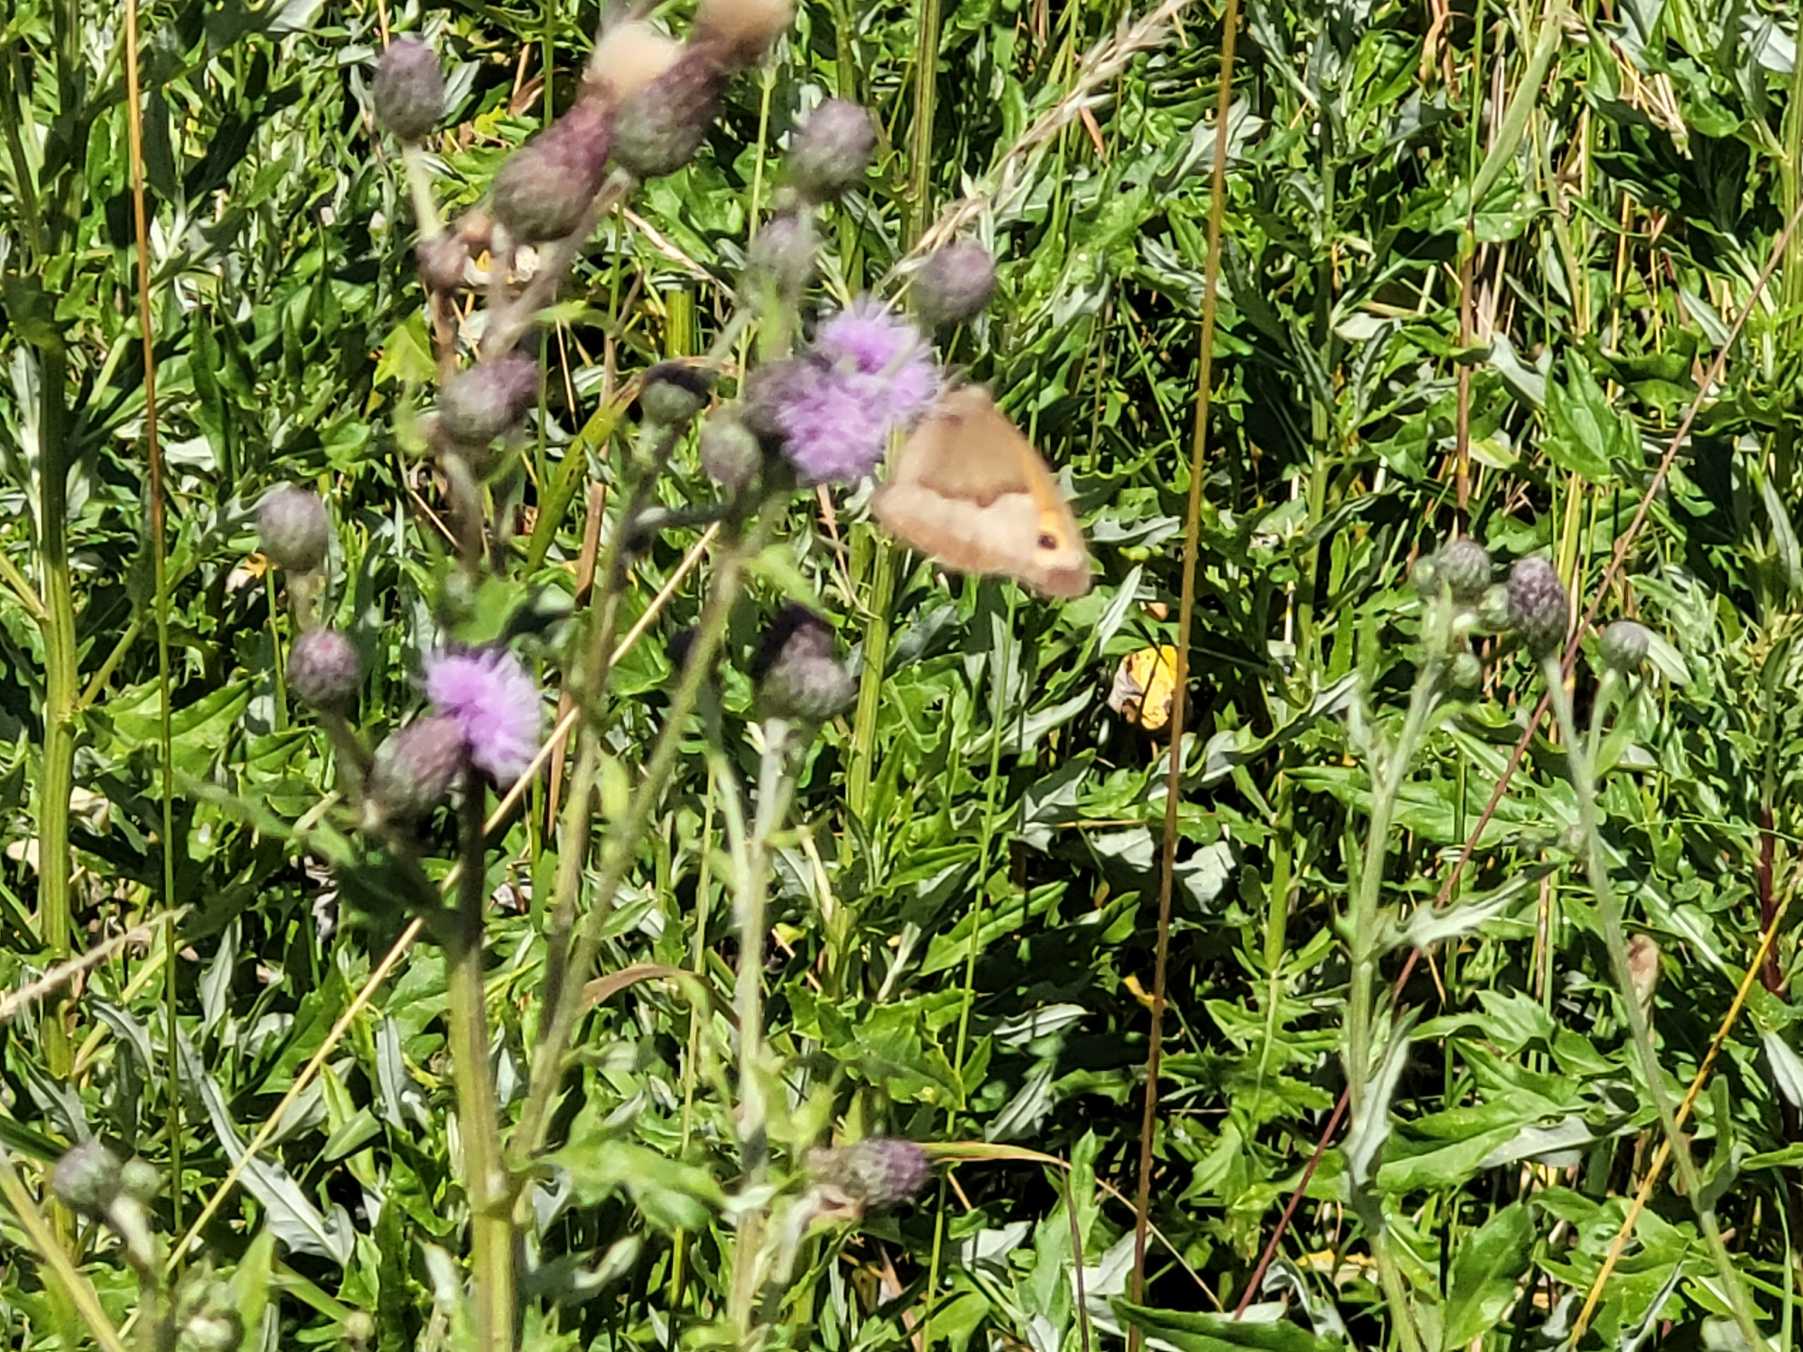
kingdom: Animalia
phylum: Arthropoda
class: Insecta
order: Lepidoptera
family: Nymphalidae
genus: Maniola
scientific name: Maniola jurtina
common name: Græsrandøje
